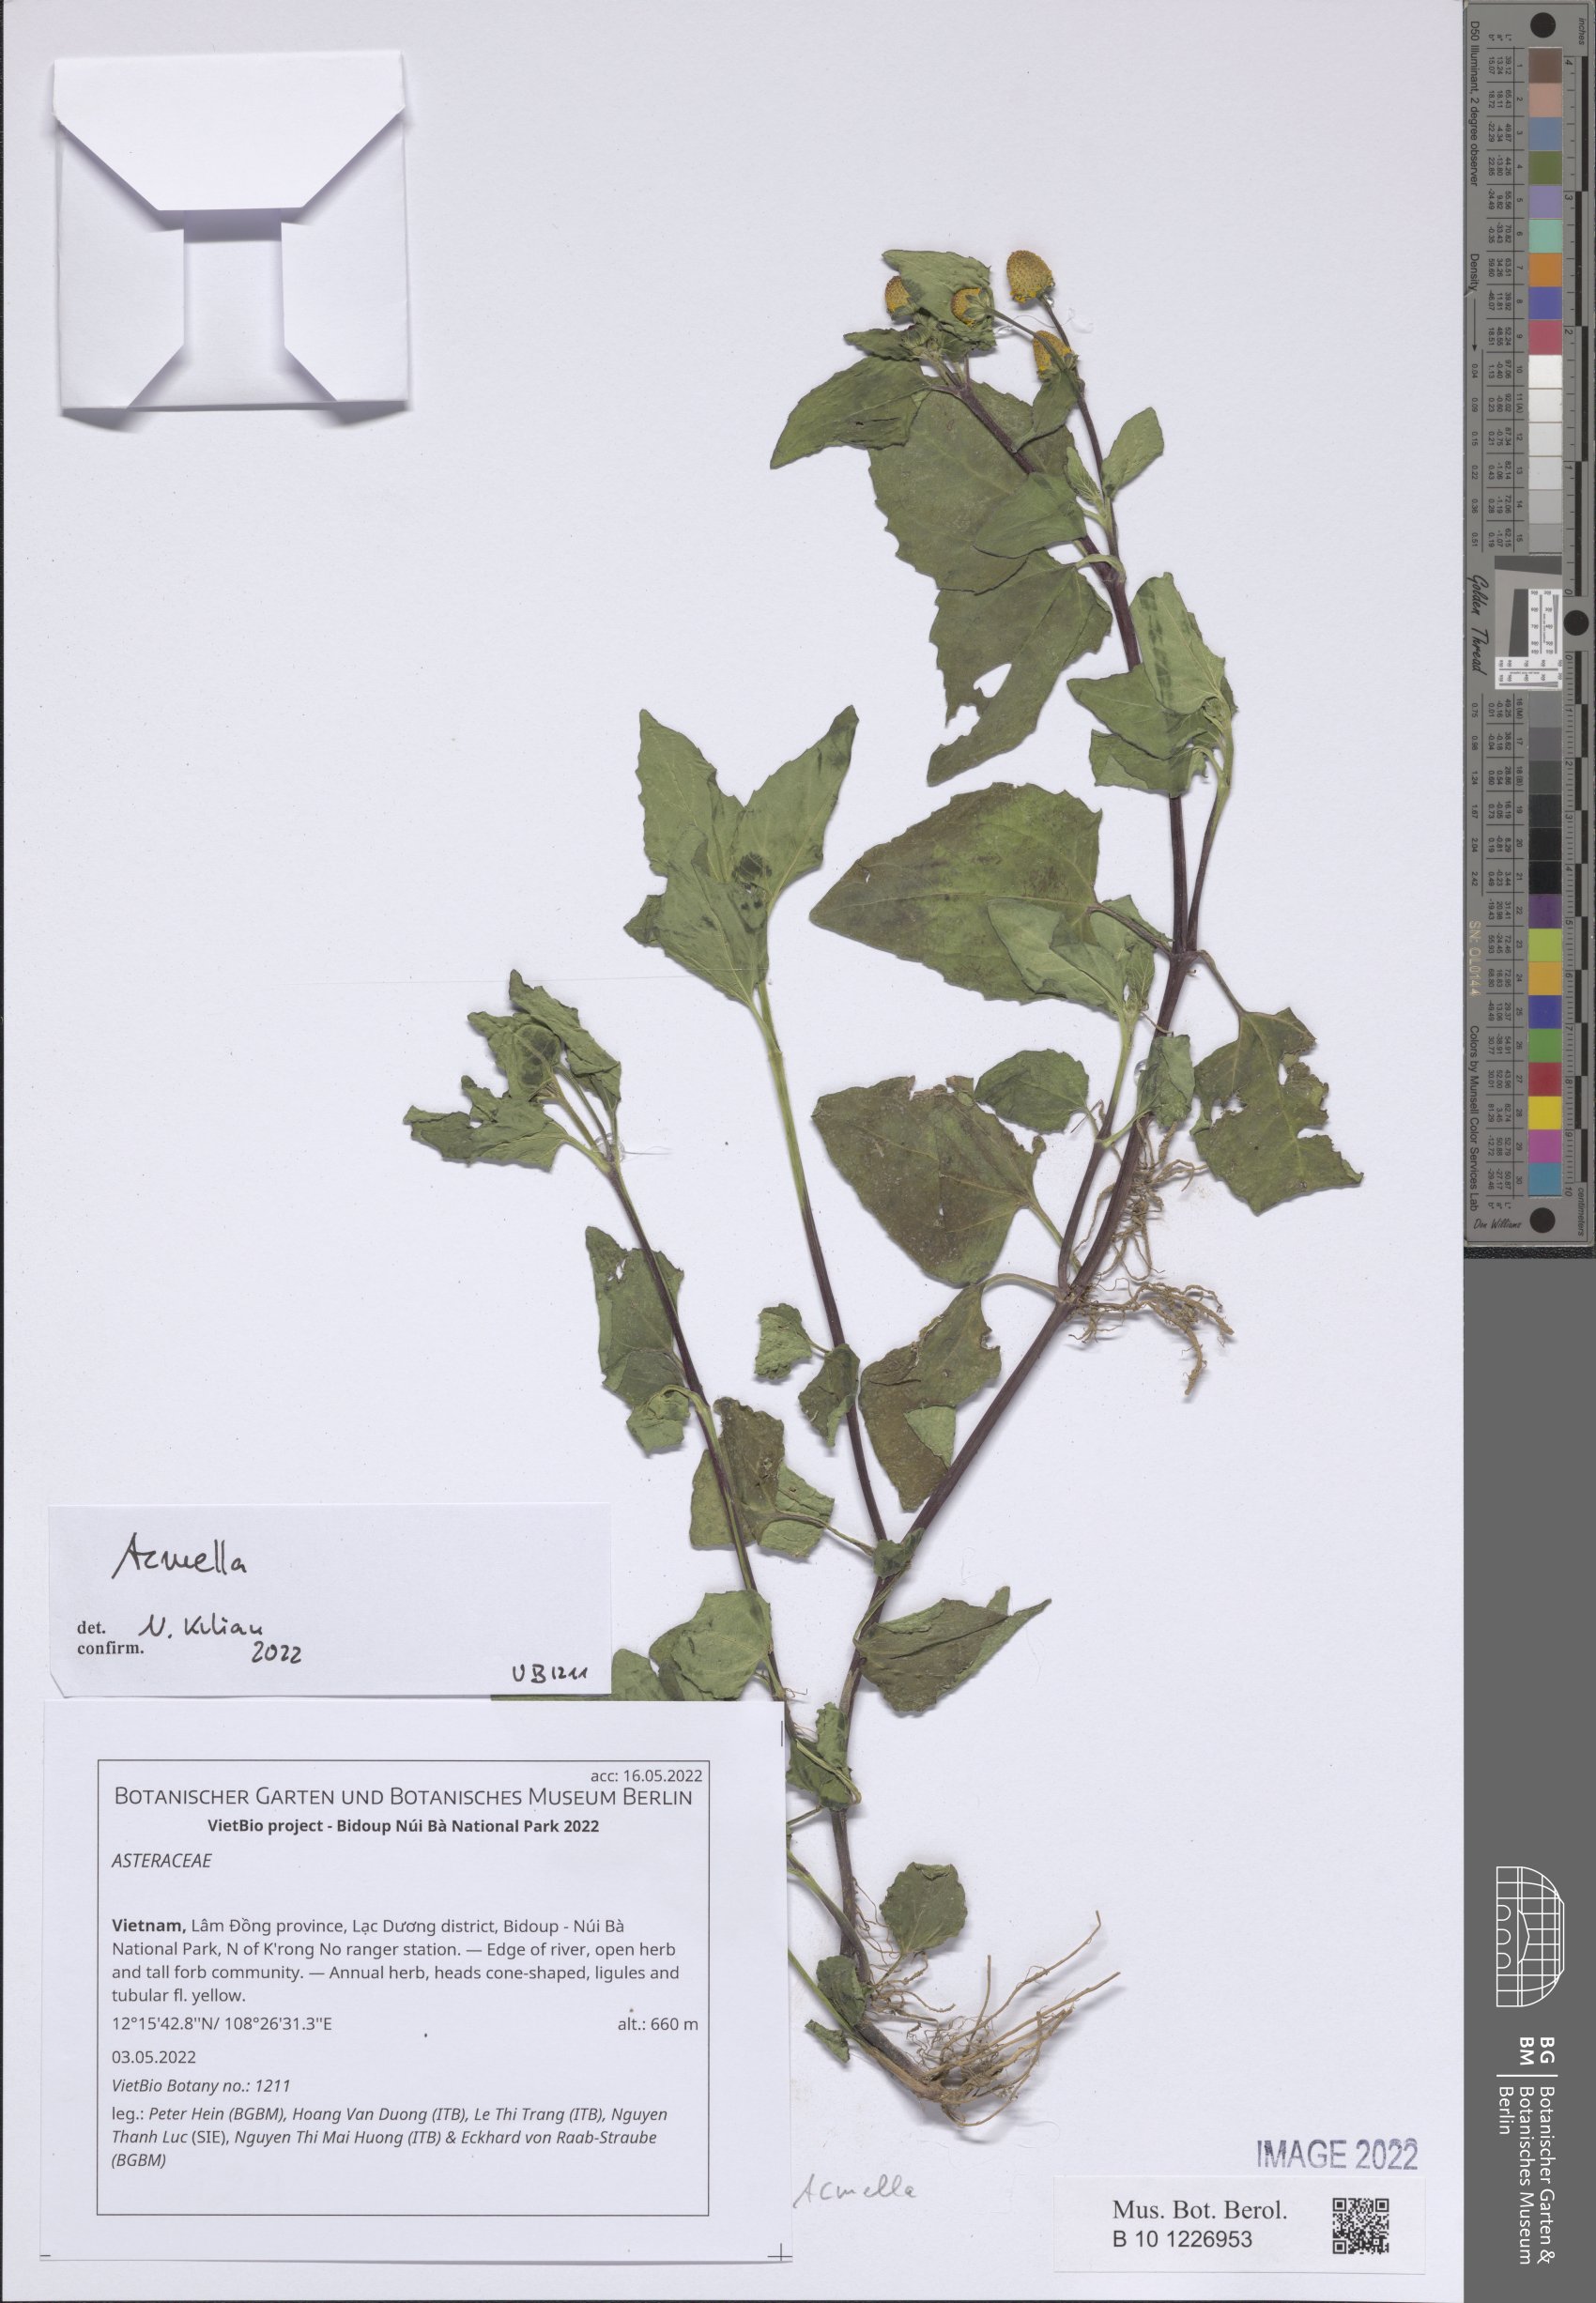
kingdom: Plantae
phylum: Tracheophyta
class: Magnoliopsida
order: Asterales
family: Asteraceae
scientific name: Asteraceae
